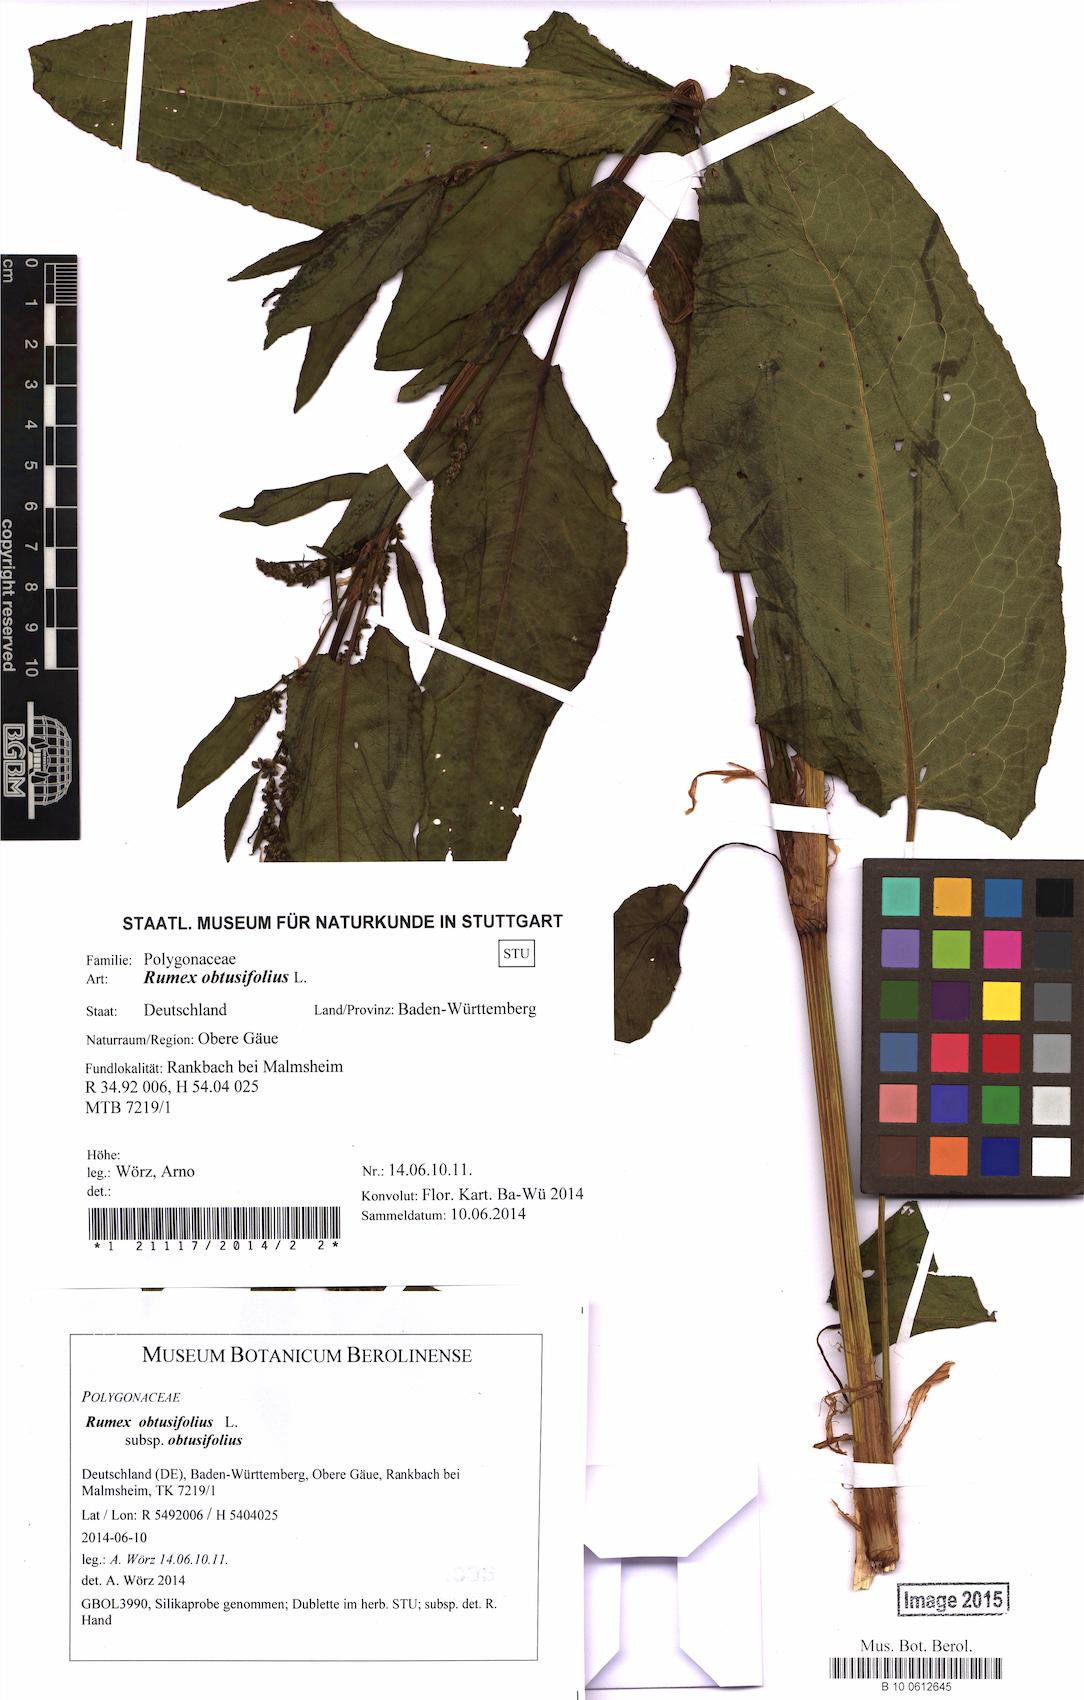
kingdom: Plantae
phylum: Tracheophyta
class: Magnoliopsida
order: Caryophyllales
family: Polygonaceae
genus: Rumex
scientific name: Rumex obtusifolius
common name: Bitter dock
